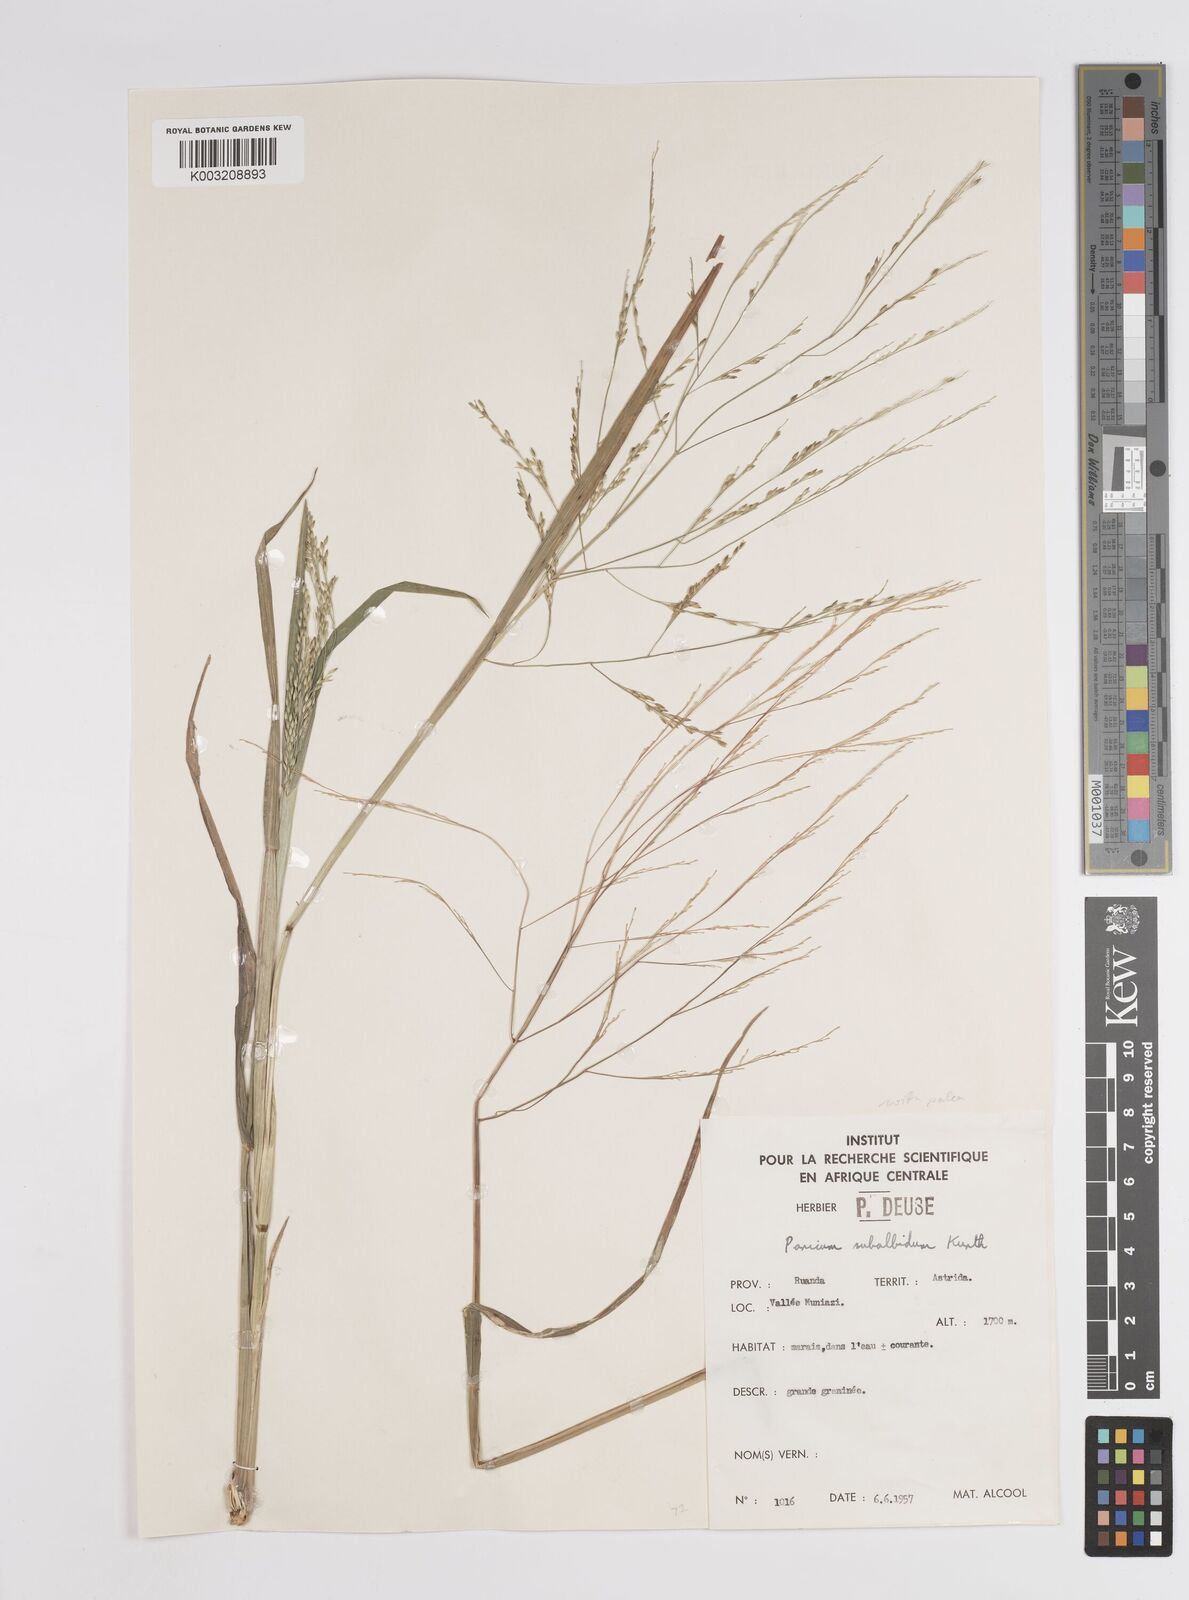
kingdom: Plantae
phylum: Tracheophyta
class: Liliopsida
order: Poales
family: Poaceae
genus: Panicum
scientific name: Panicum subalbidum
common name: Elbow buffalo grass
